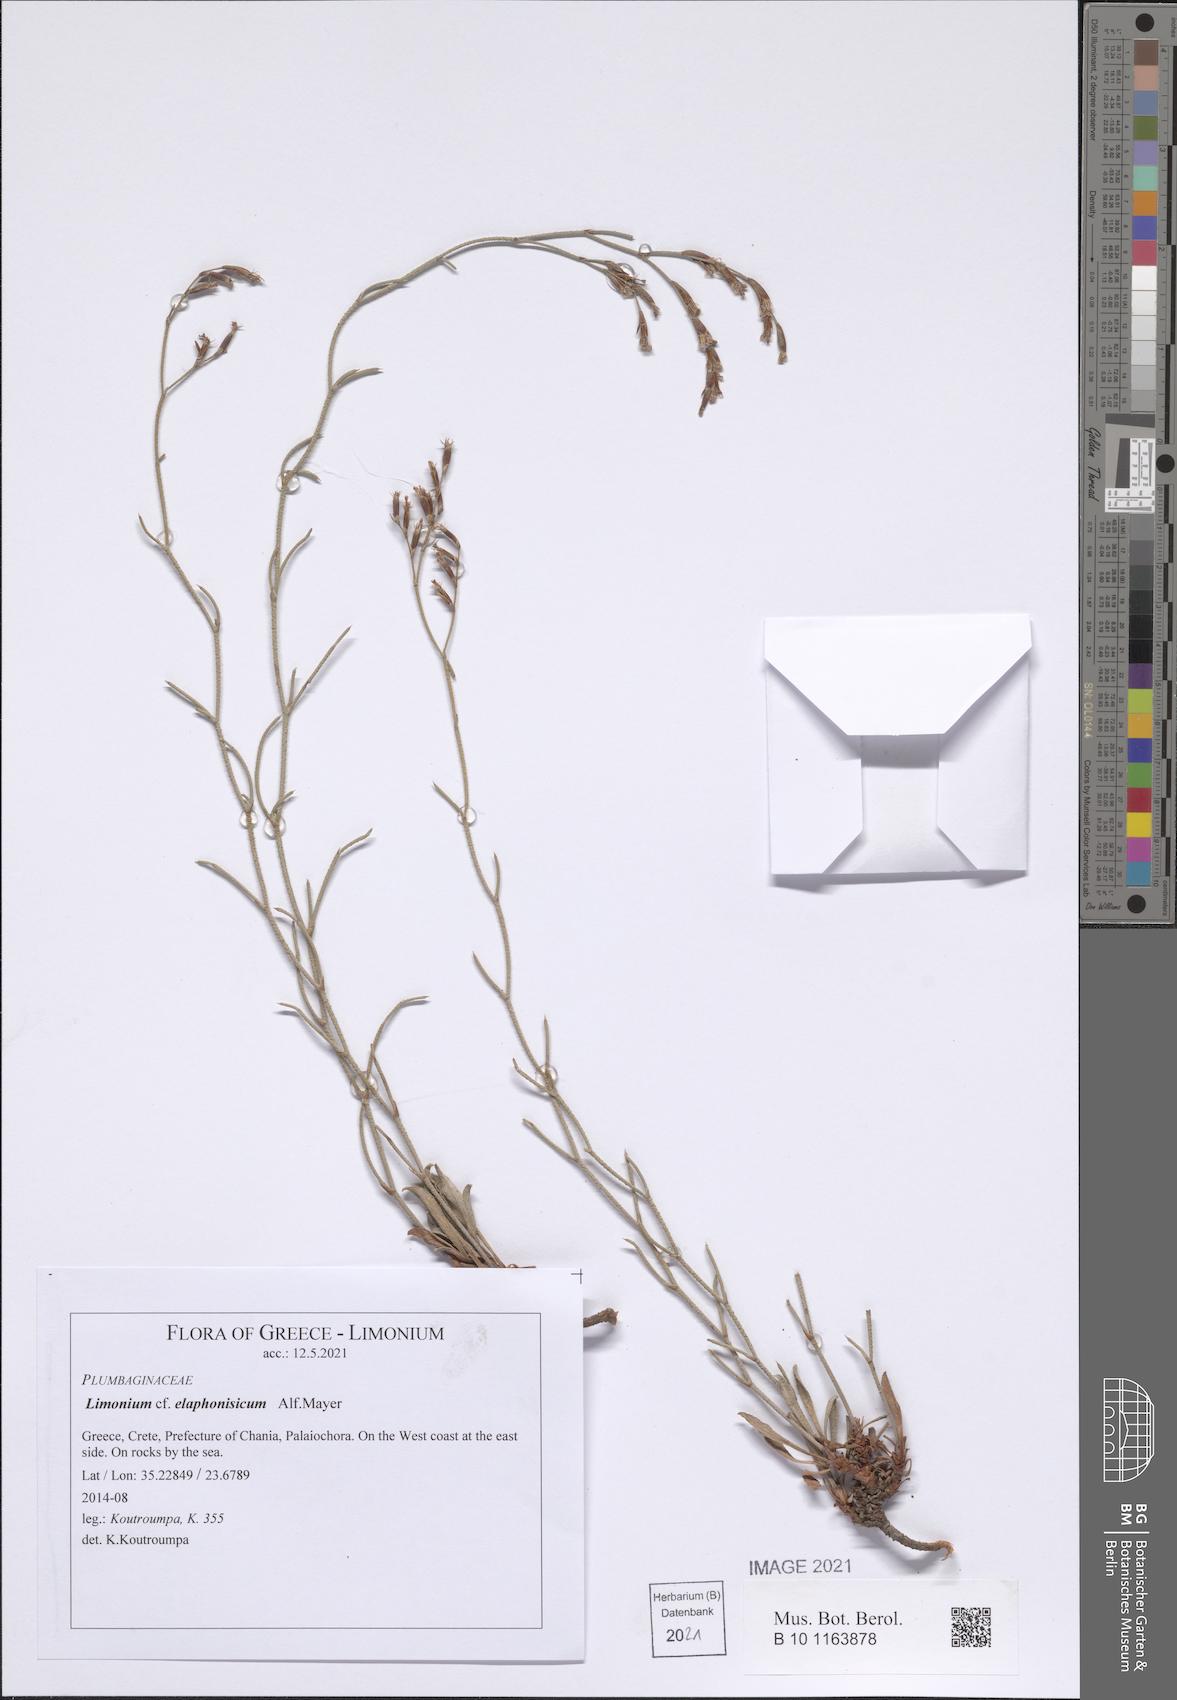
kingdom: Plantae
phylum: Tracheophyta
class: Magnoliopsida
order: Caryophyllales
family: Plumbaginaceae
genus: Limonium
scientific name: Limonium elaphonisicum
